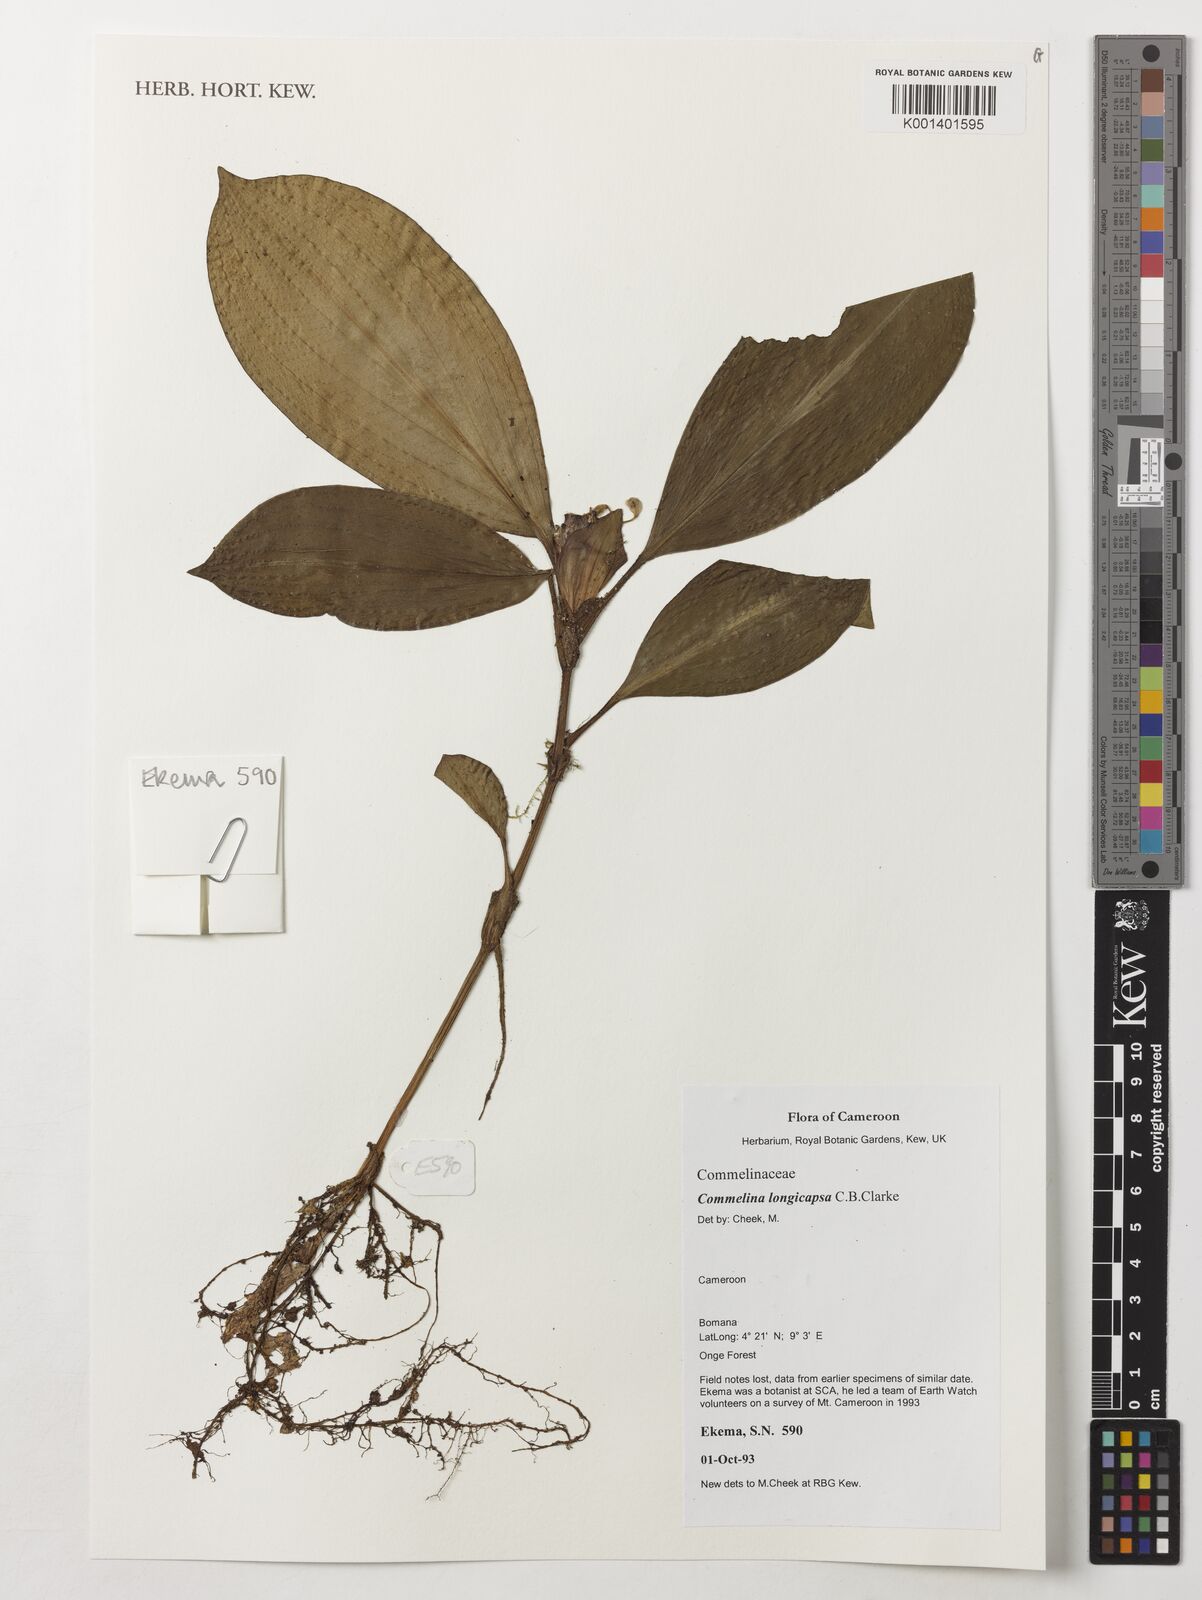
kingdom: Plantae
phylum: Tracheophyta
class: Liliopsida
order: Commelinales
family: Commelinaceae
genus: Commelina
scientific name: Commelina longicapsa
